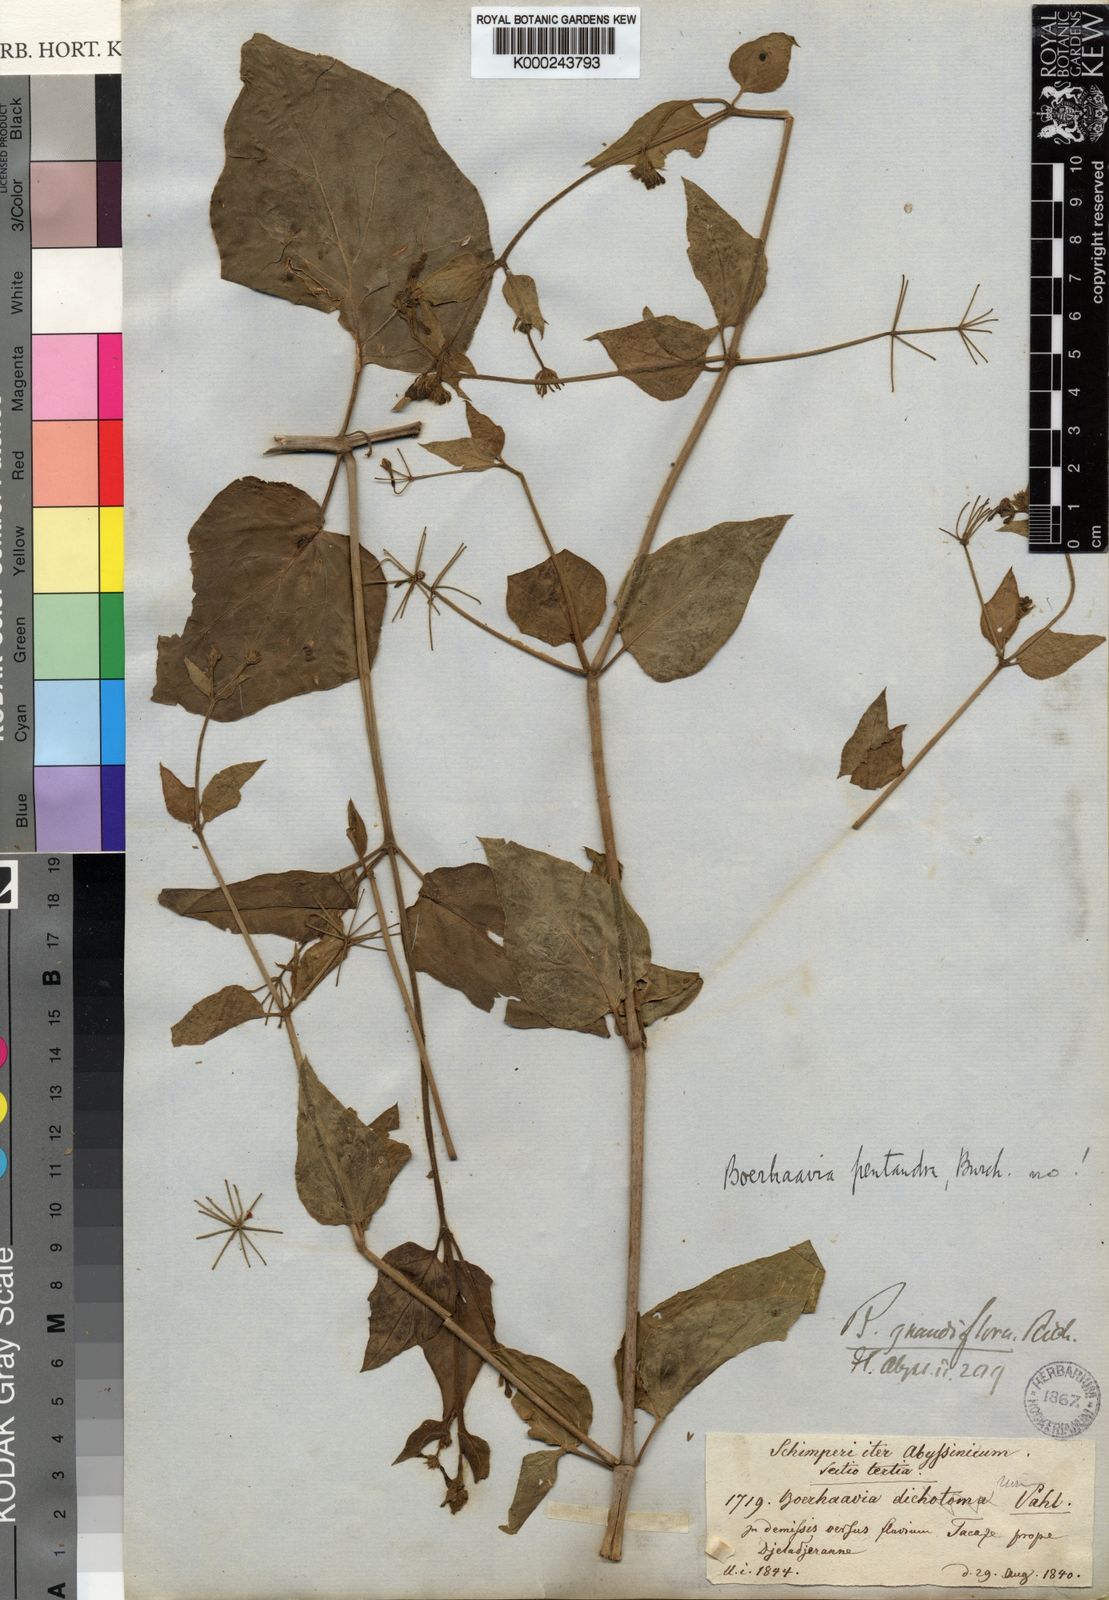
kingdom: Plantae
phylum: Tracheophyta
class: Magnoliopsida
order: Caryophyllales
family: Nyctaginaceae
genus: Commicarpus
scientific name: Commicarpus grandiflorus
